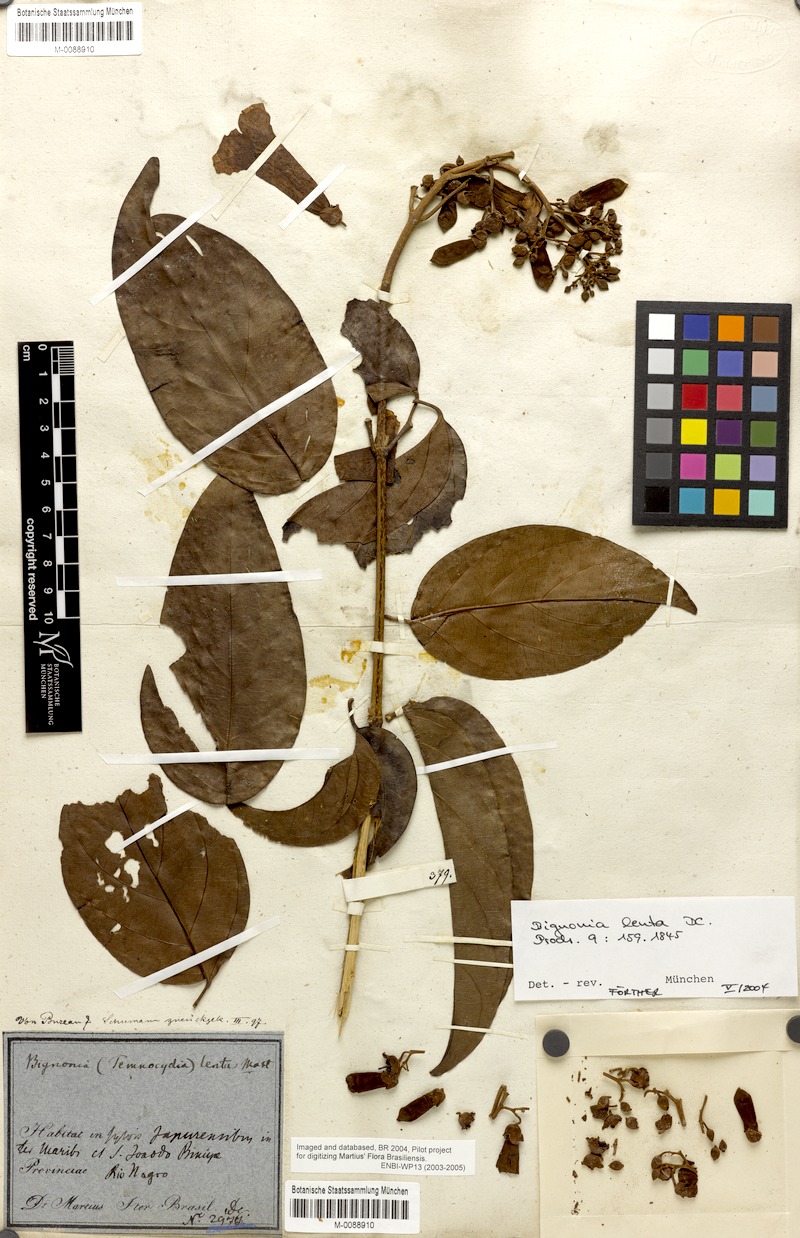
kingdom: Plantae
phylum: Tracheophyta
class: Magnoliopsida
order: Lamiales
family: Bignoniaceae
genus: Tanaecium
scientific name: Tanaecium pyramidatum
